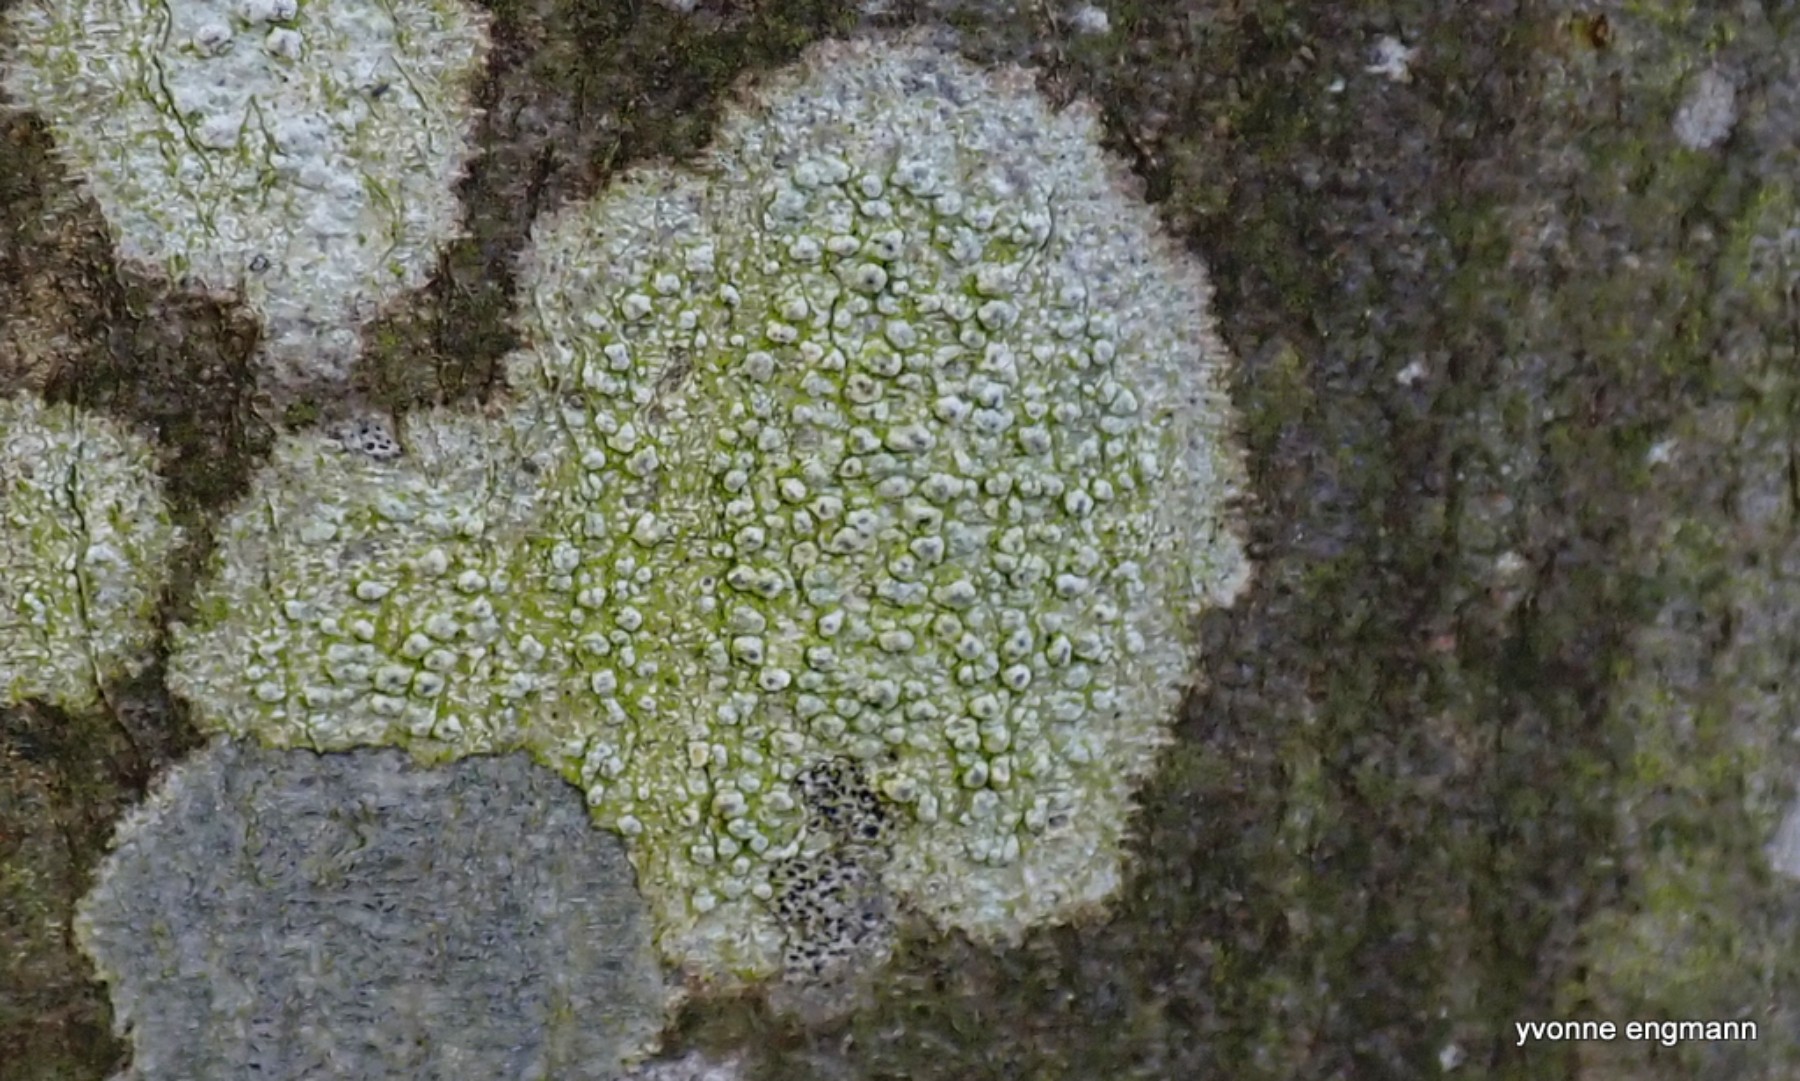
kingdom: Fungi
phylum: Ascomycota
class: Lecanoromycetes
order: Pertusariales
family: Pertusariaceae
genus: Pertusaria
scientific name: Pertusaria hymenea
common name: åben prikvortelav
